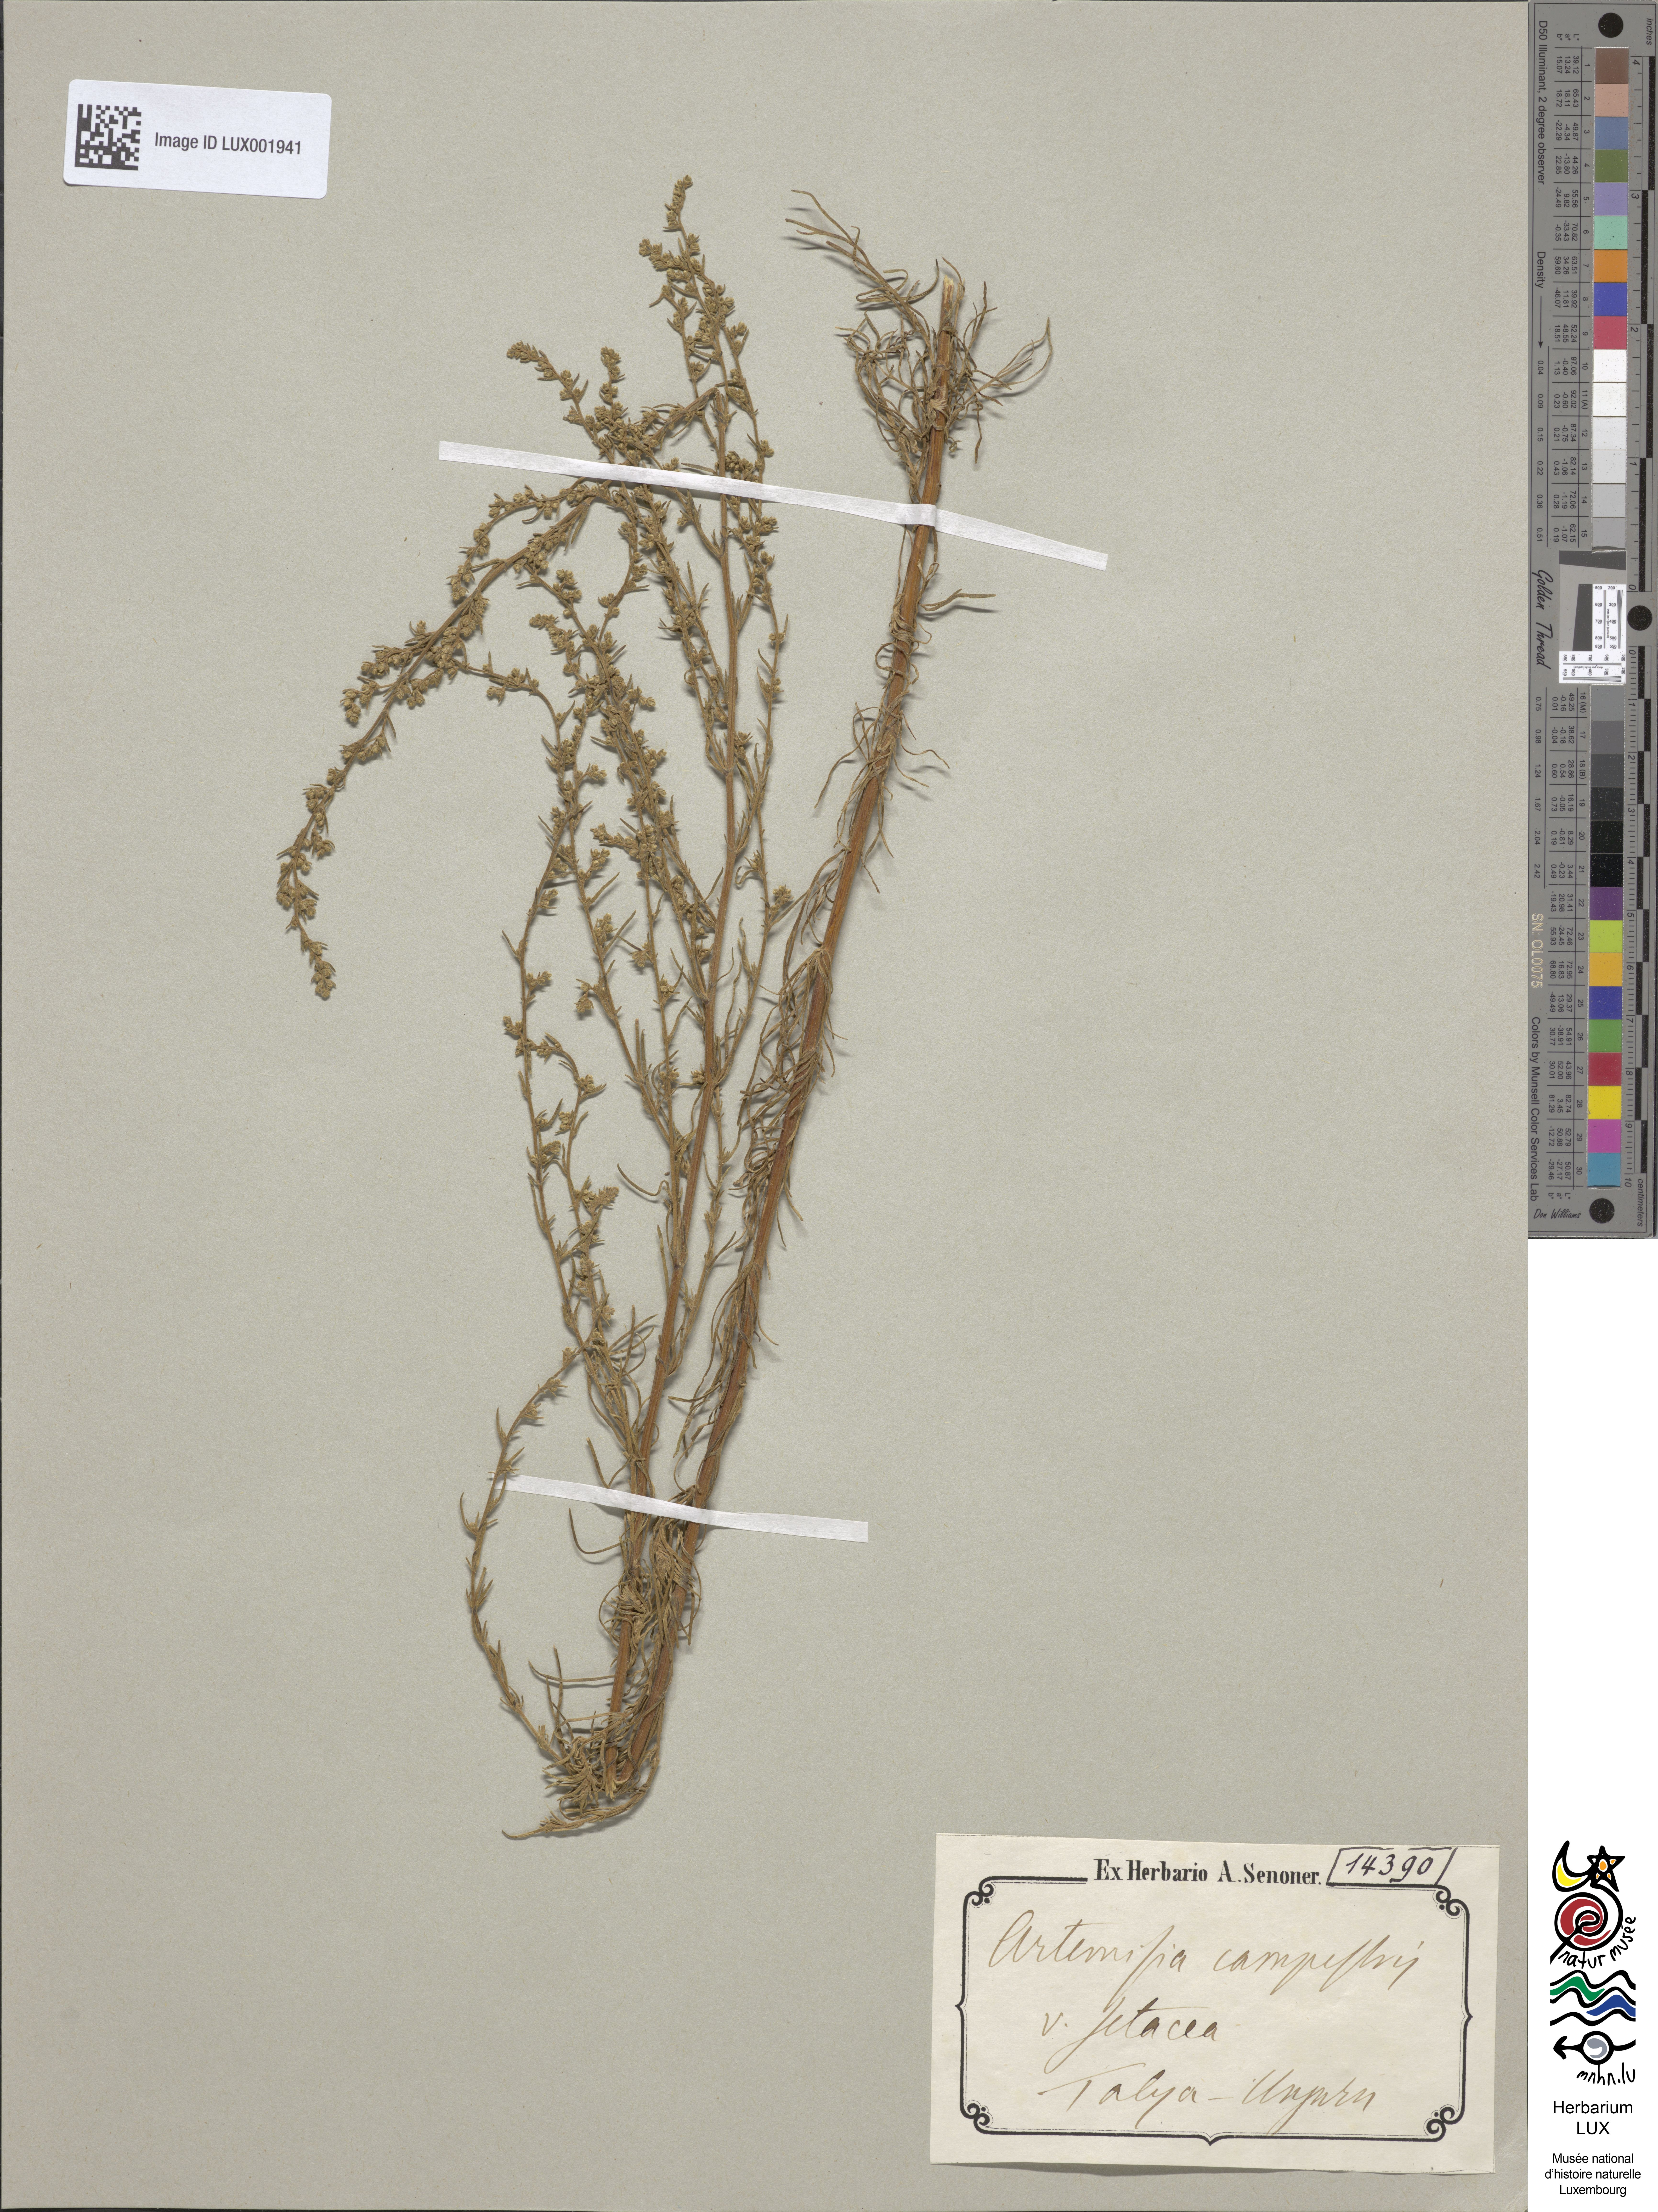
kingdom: Plantae
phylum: Tracheophyta
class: Magnoliopsida
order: Asterales
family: Asteraceae
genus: Artemisia
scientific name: Artemisia campestris
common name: Field wormwood
